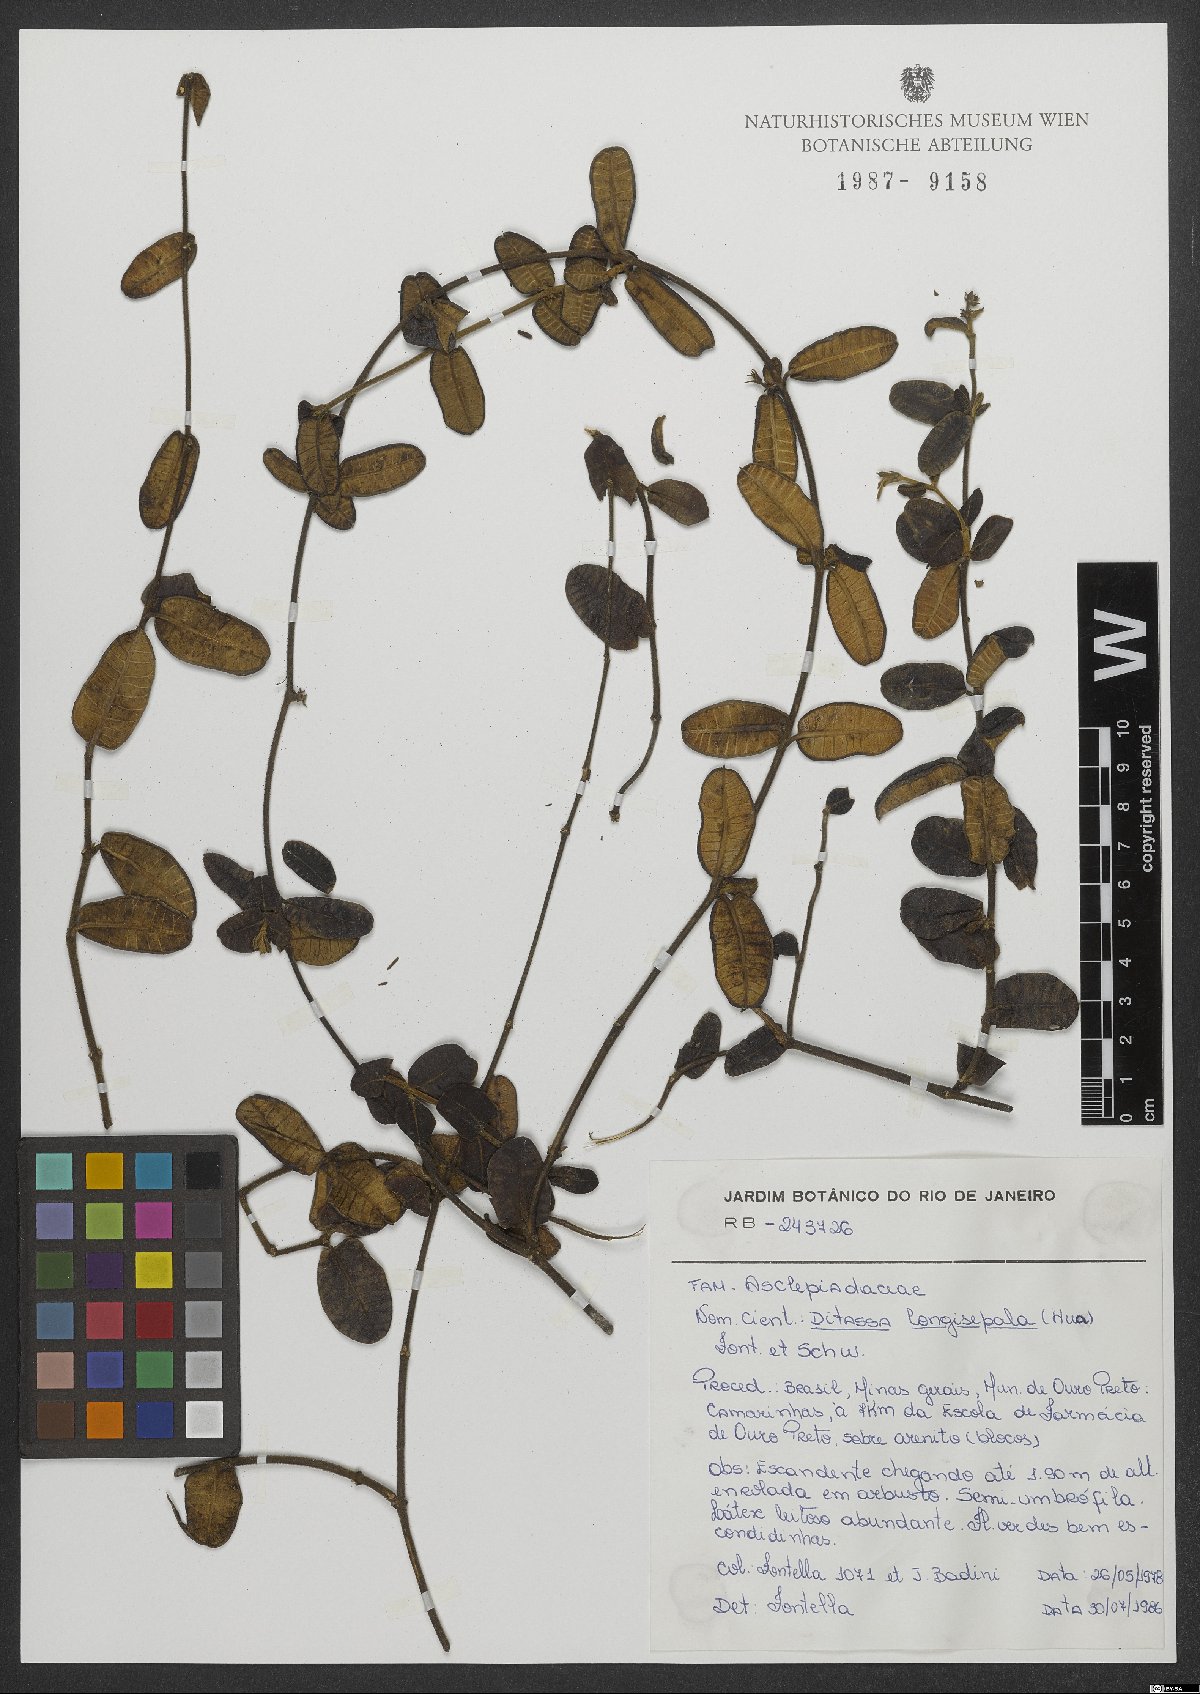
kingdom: Plantae
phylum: Tracheophyta
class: Magnoliopsida
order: Gentianales
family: Apocynaceae
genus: Ditassa
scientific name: Ditassa longisepala
